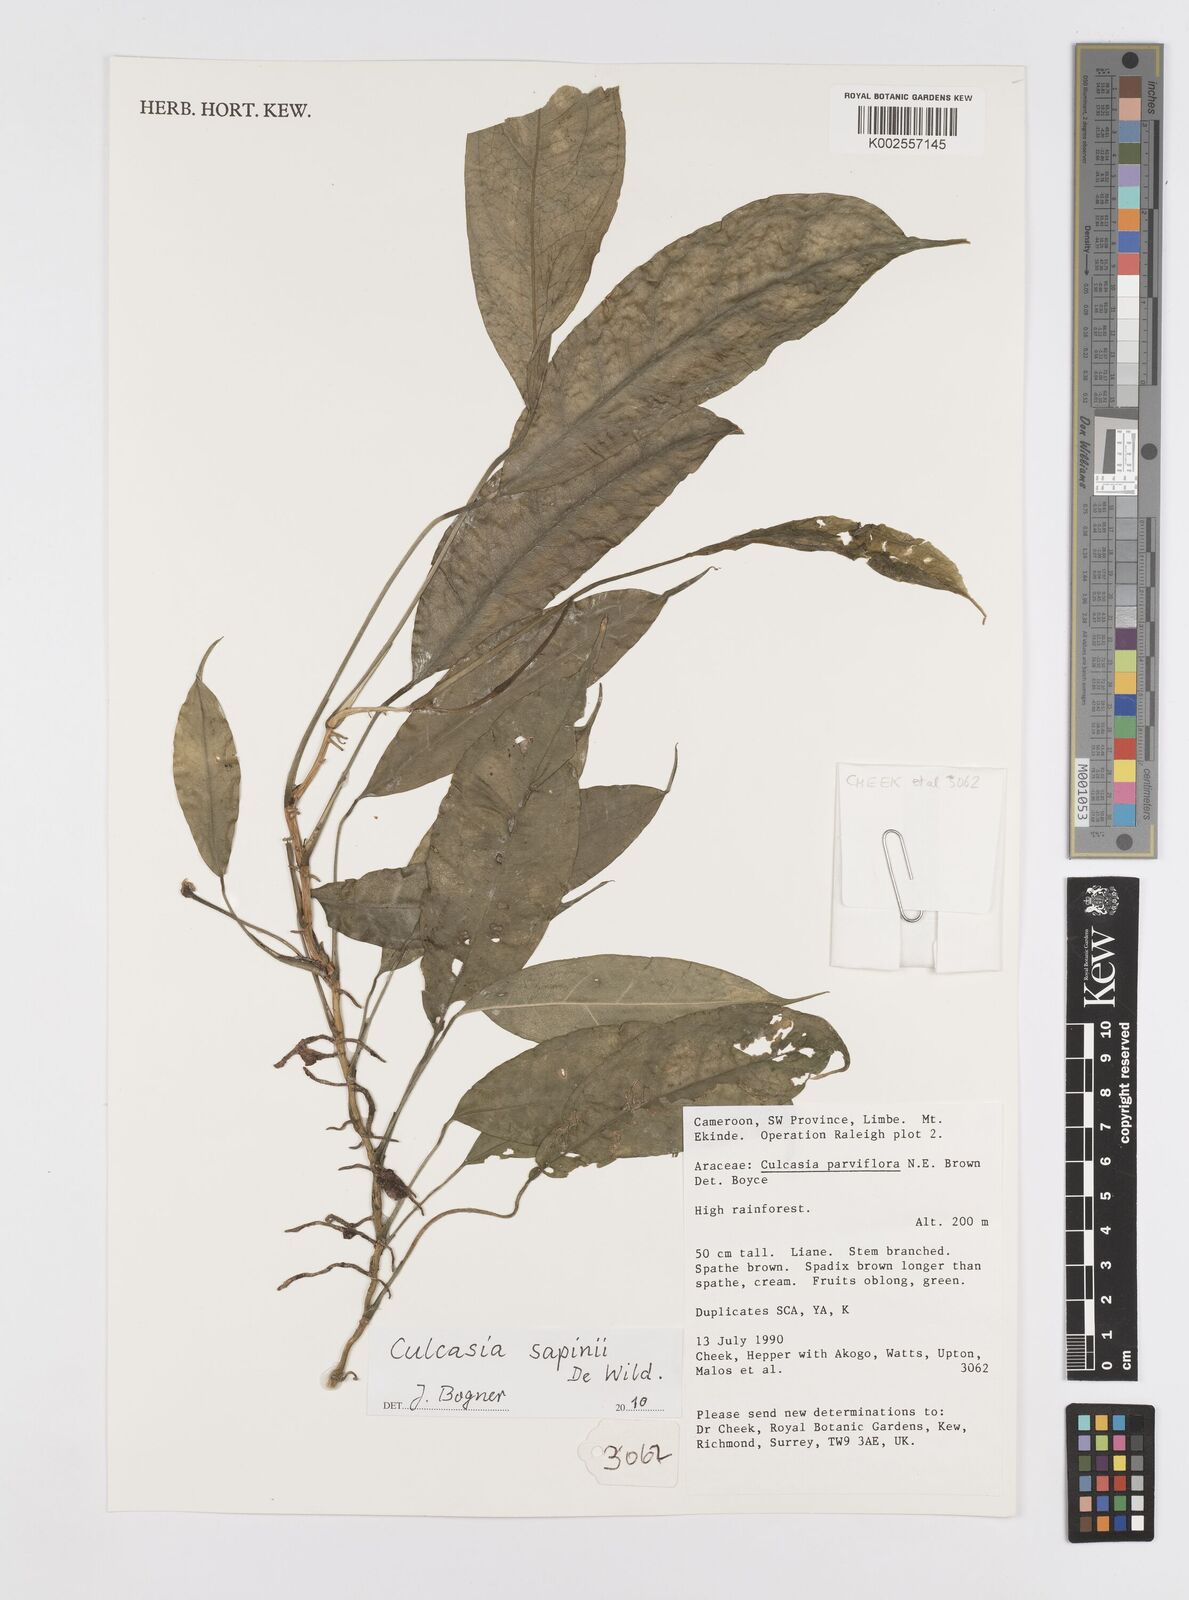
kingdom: Plantae
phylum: Tracheophyta
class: Liliopsida
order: Alismatales
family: Araceae
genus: Culcasia
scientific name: Culcasia seretii
